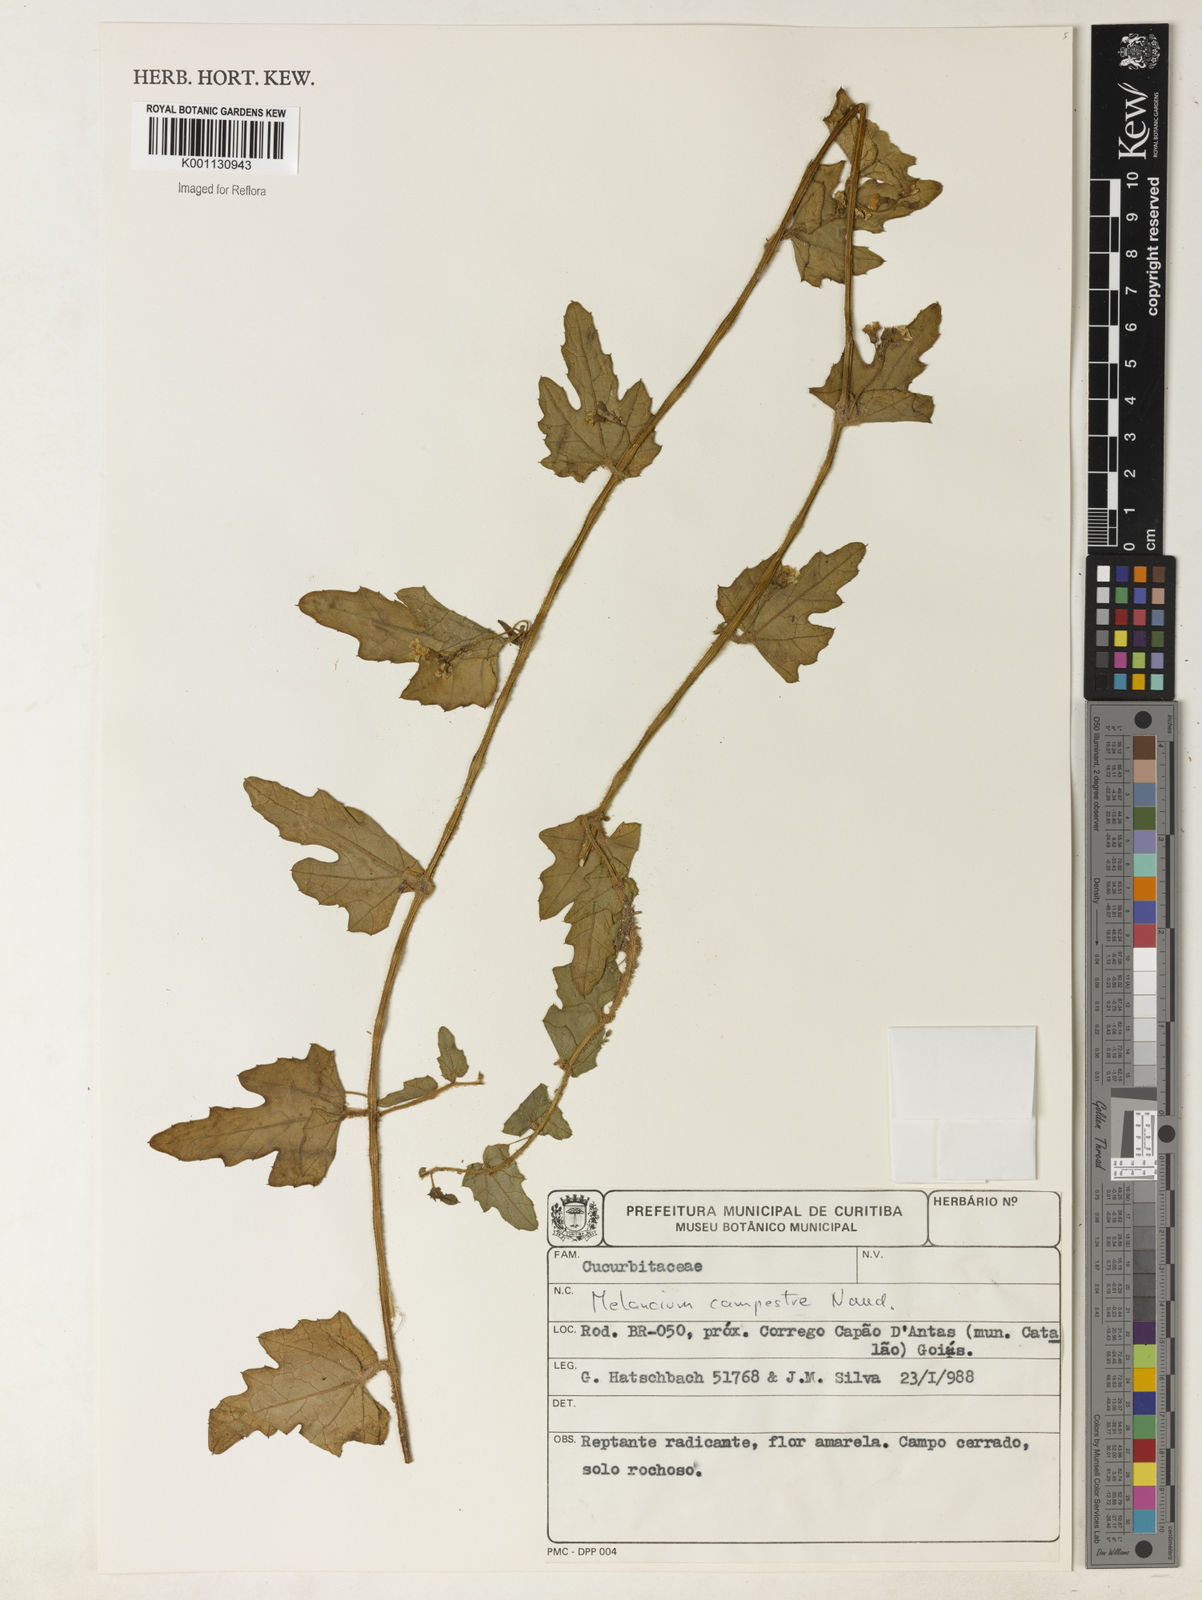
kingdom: Plantae
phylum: Tracheophyta
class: Magnoliopsida
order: Cucurbitales
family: Cucurbitaceae
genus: Melothria
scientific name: Melothria campestris
